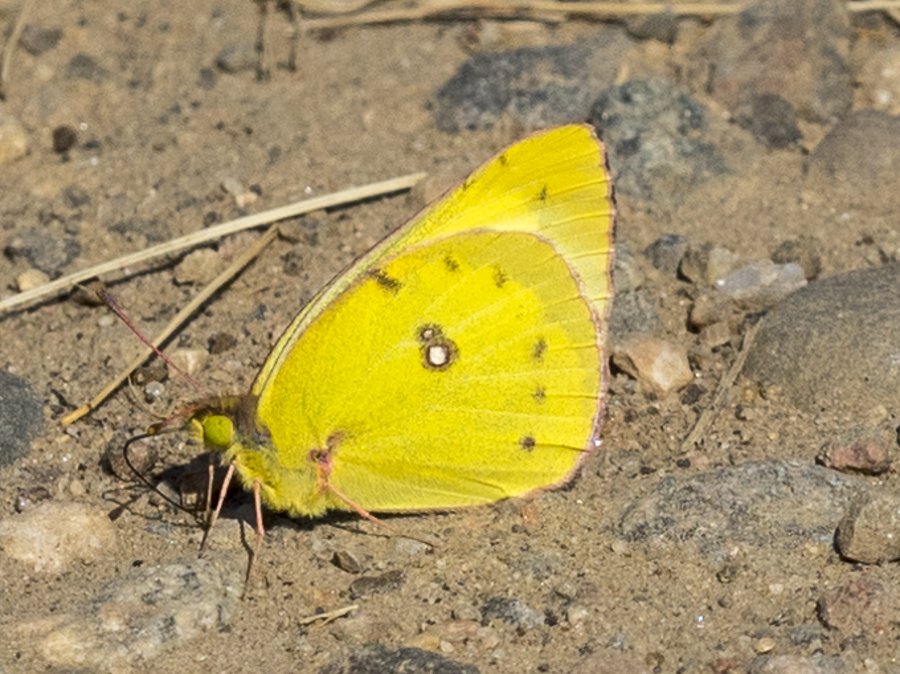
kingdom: Animalia
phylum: Arthropoda
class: Insecta
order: Lepidoptera
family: Pieridae
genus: Colias
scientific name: Colias philodice
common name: Clouded Sulphur
